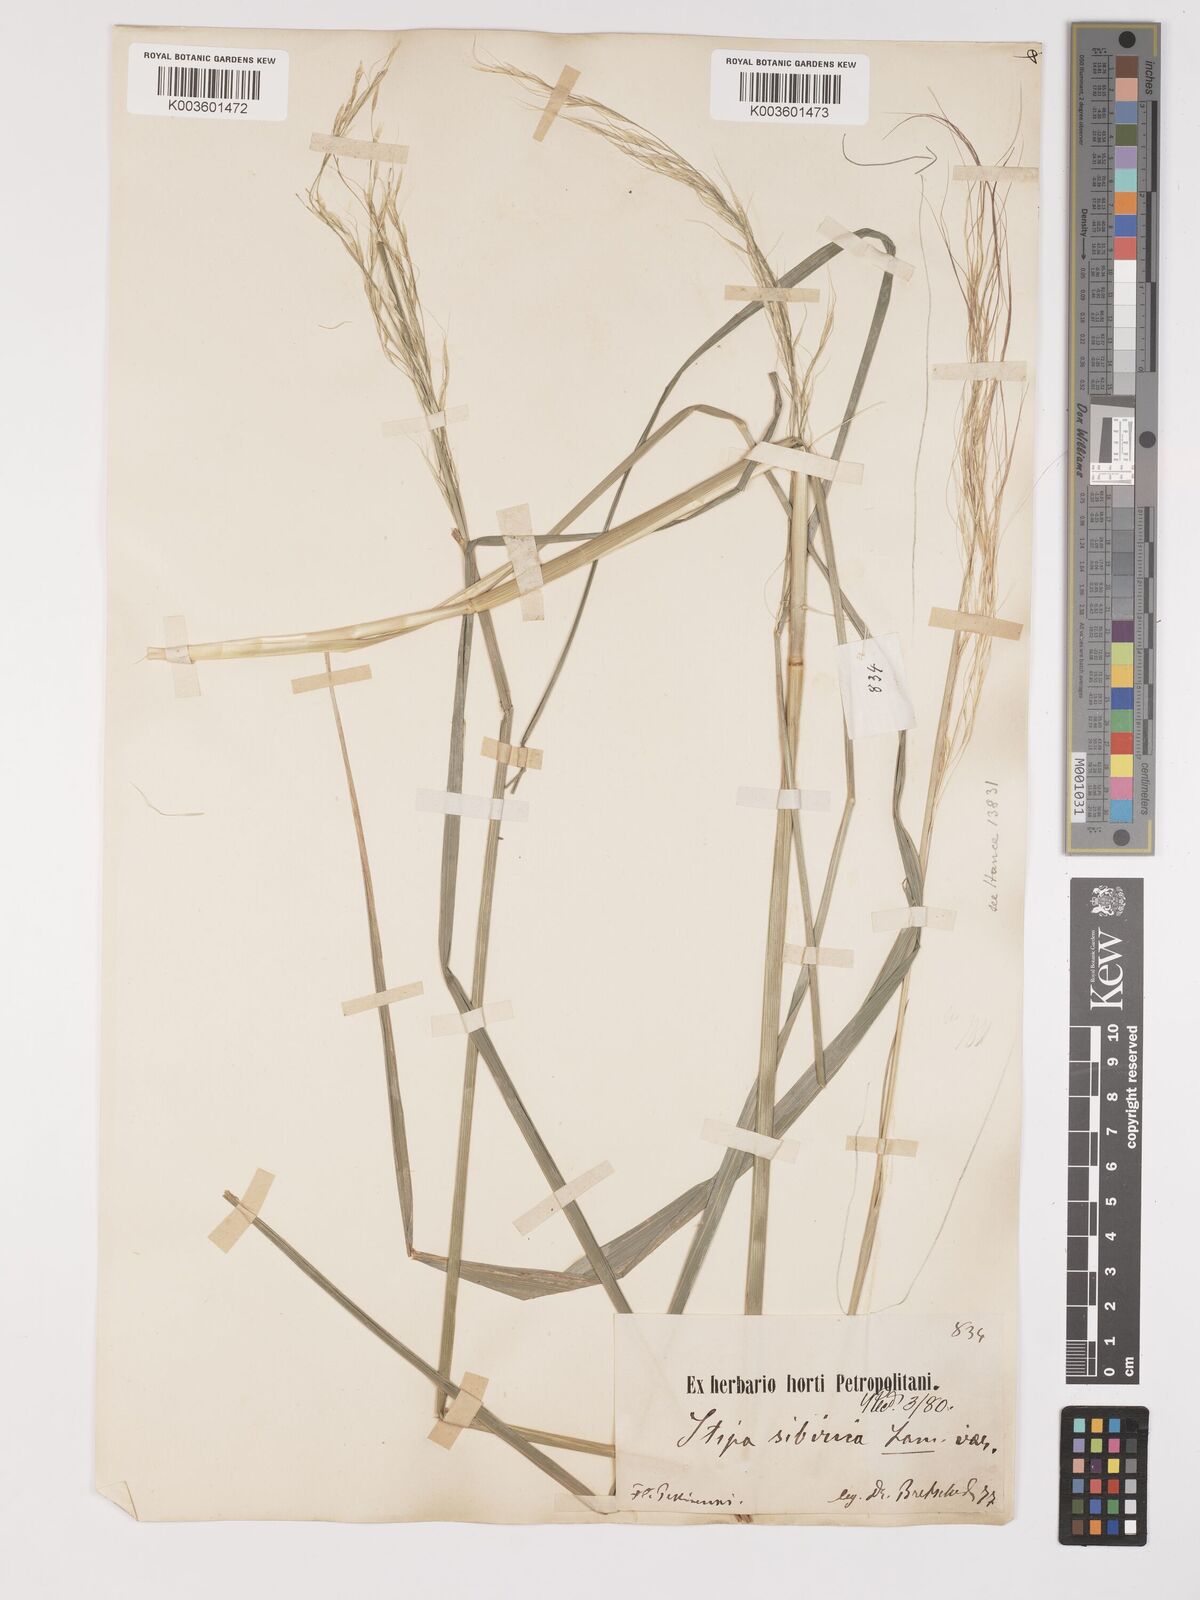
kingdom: Plantae
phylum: Tracheophyta
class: Liliopsida
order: Poales
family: Poaceae
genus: Achnatherum
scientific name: Achnatherum pekinense
